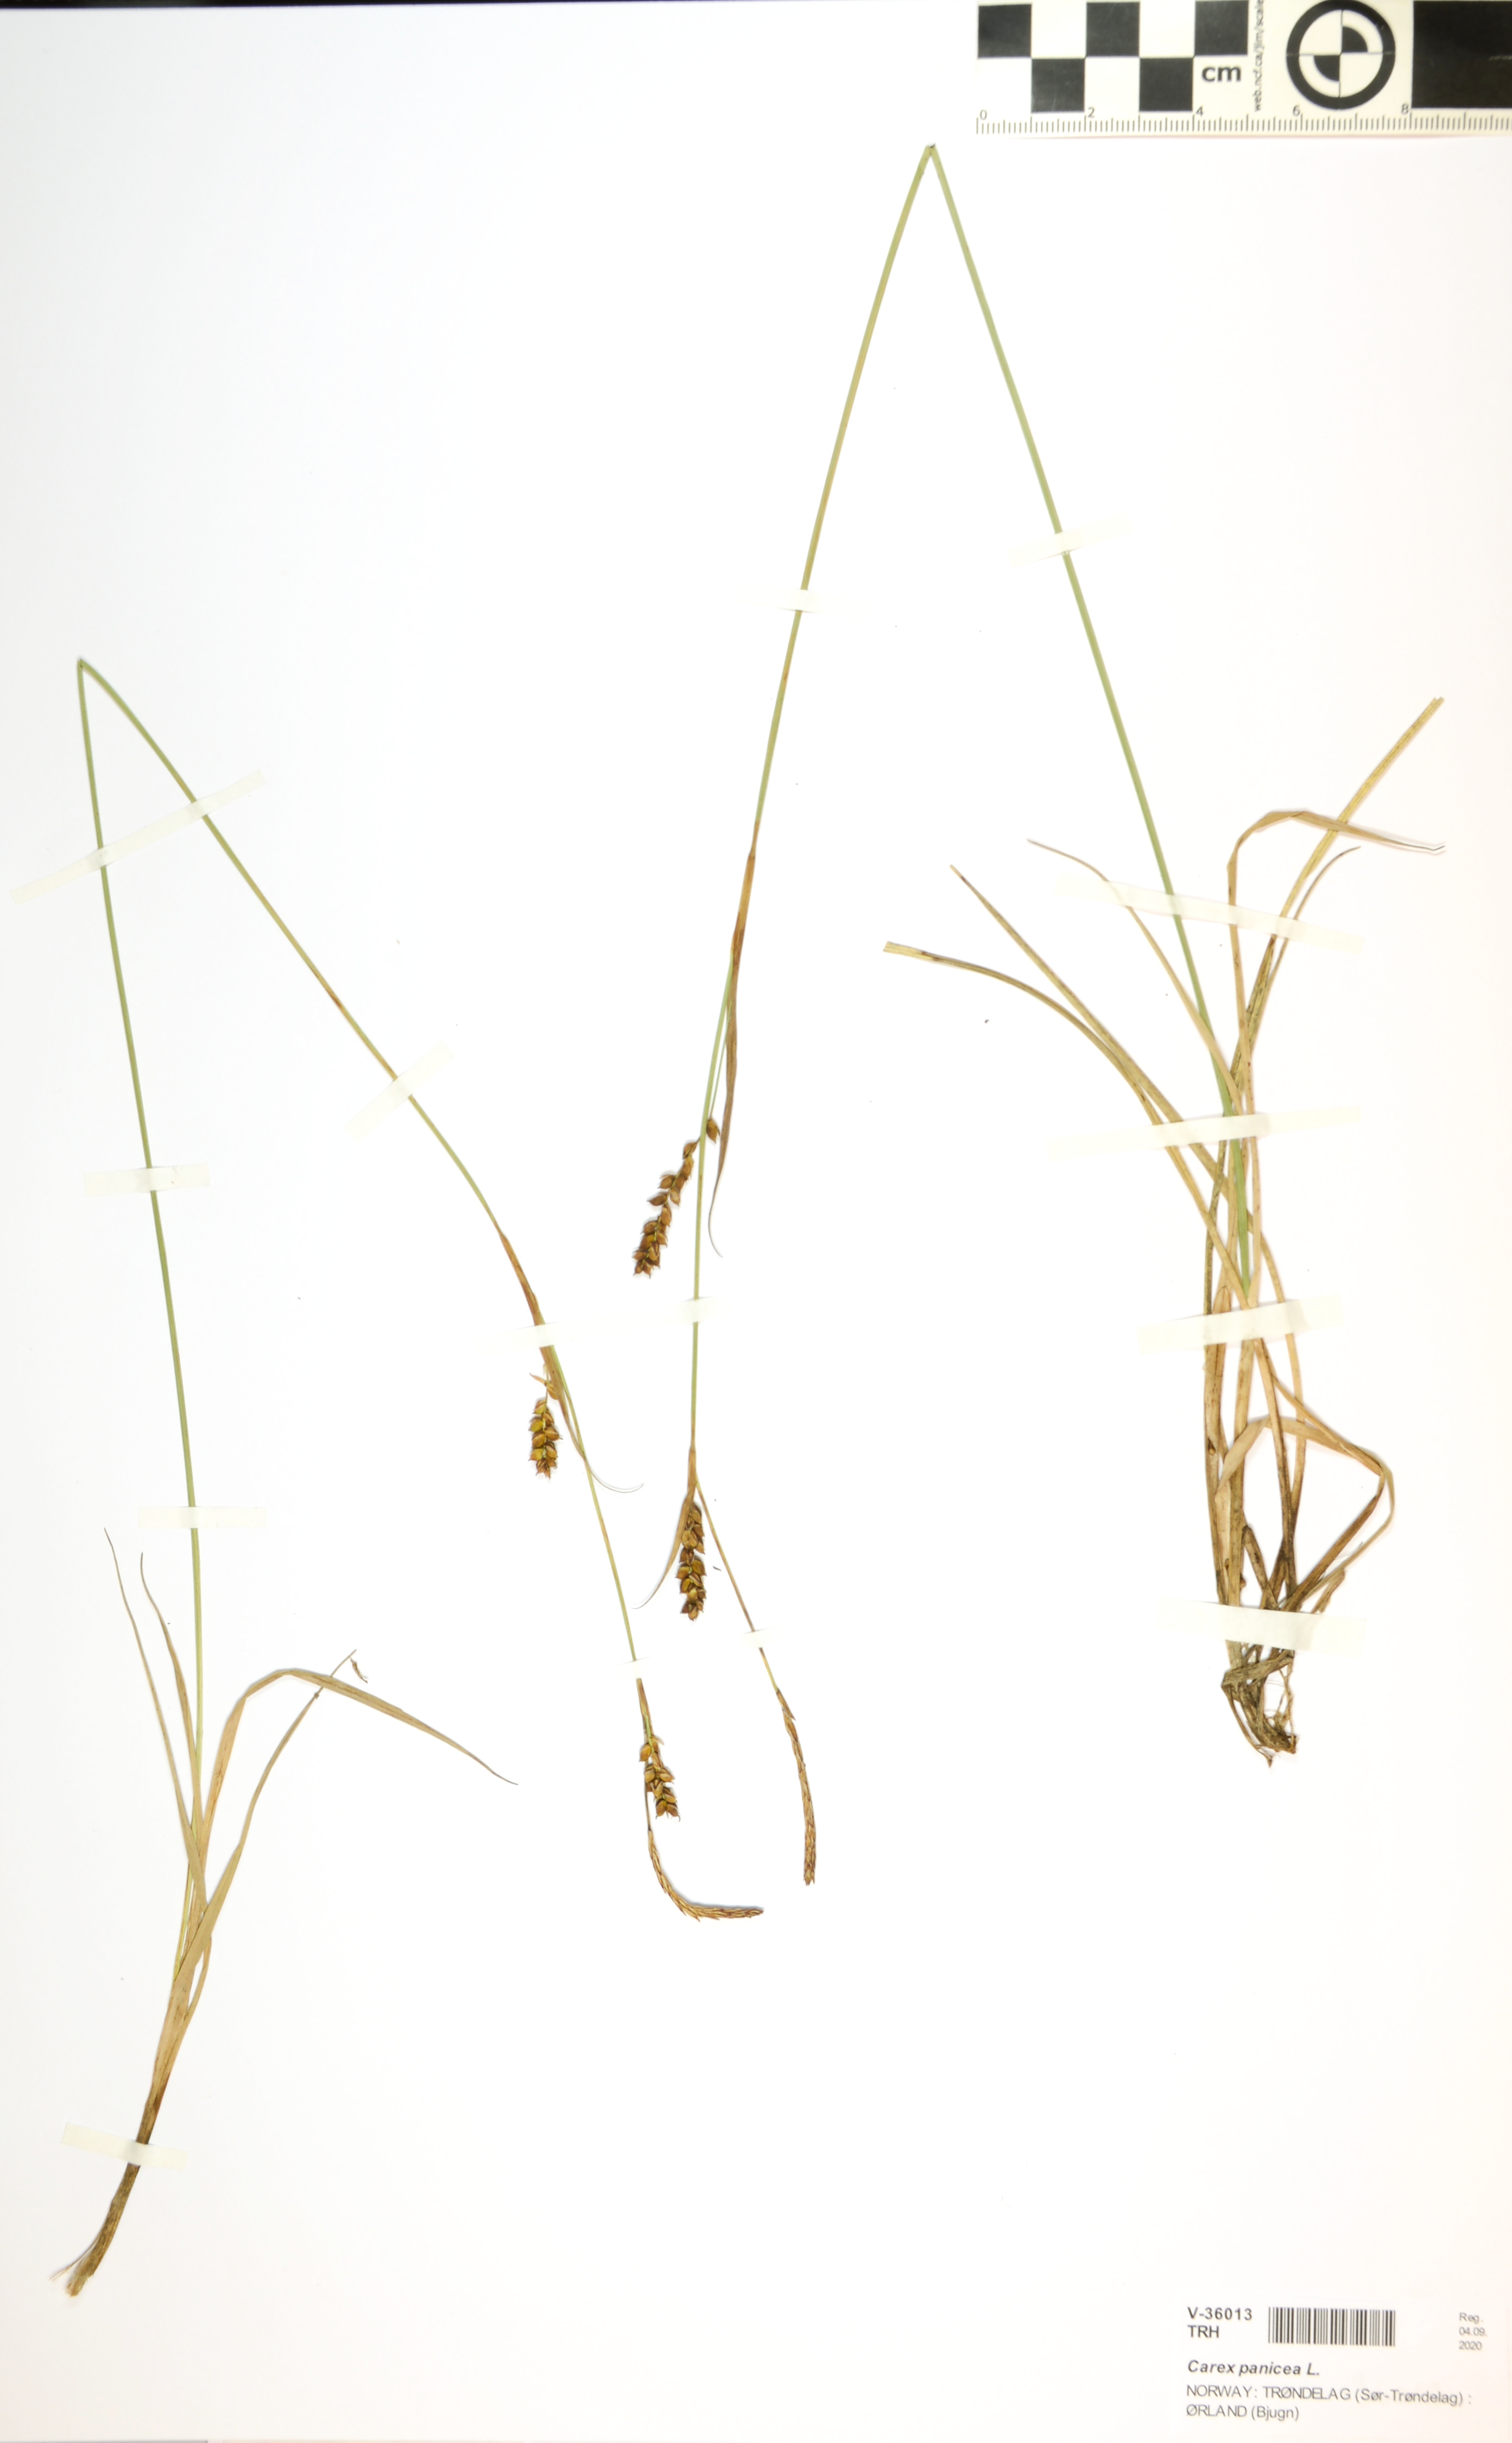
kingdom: Plantae
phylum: Tracheophyta
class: Liliopsida
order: Poales
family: Cyperaceae
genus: Carex
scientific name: Carex panicea
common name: Carnation sedge
